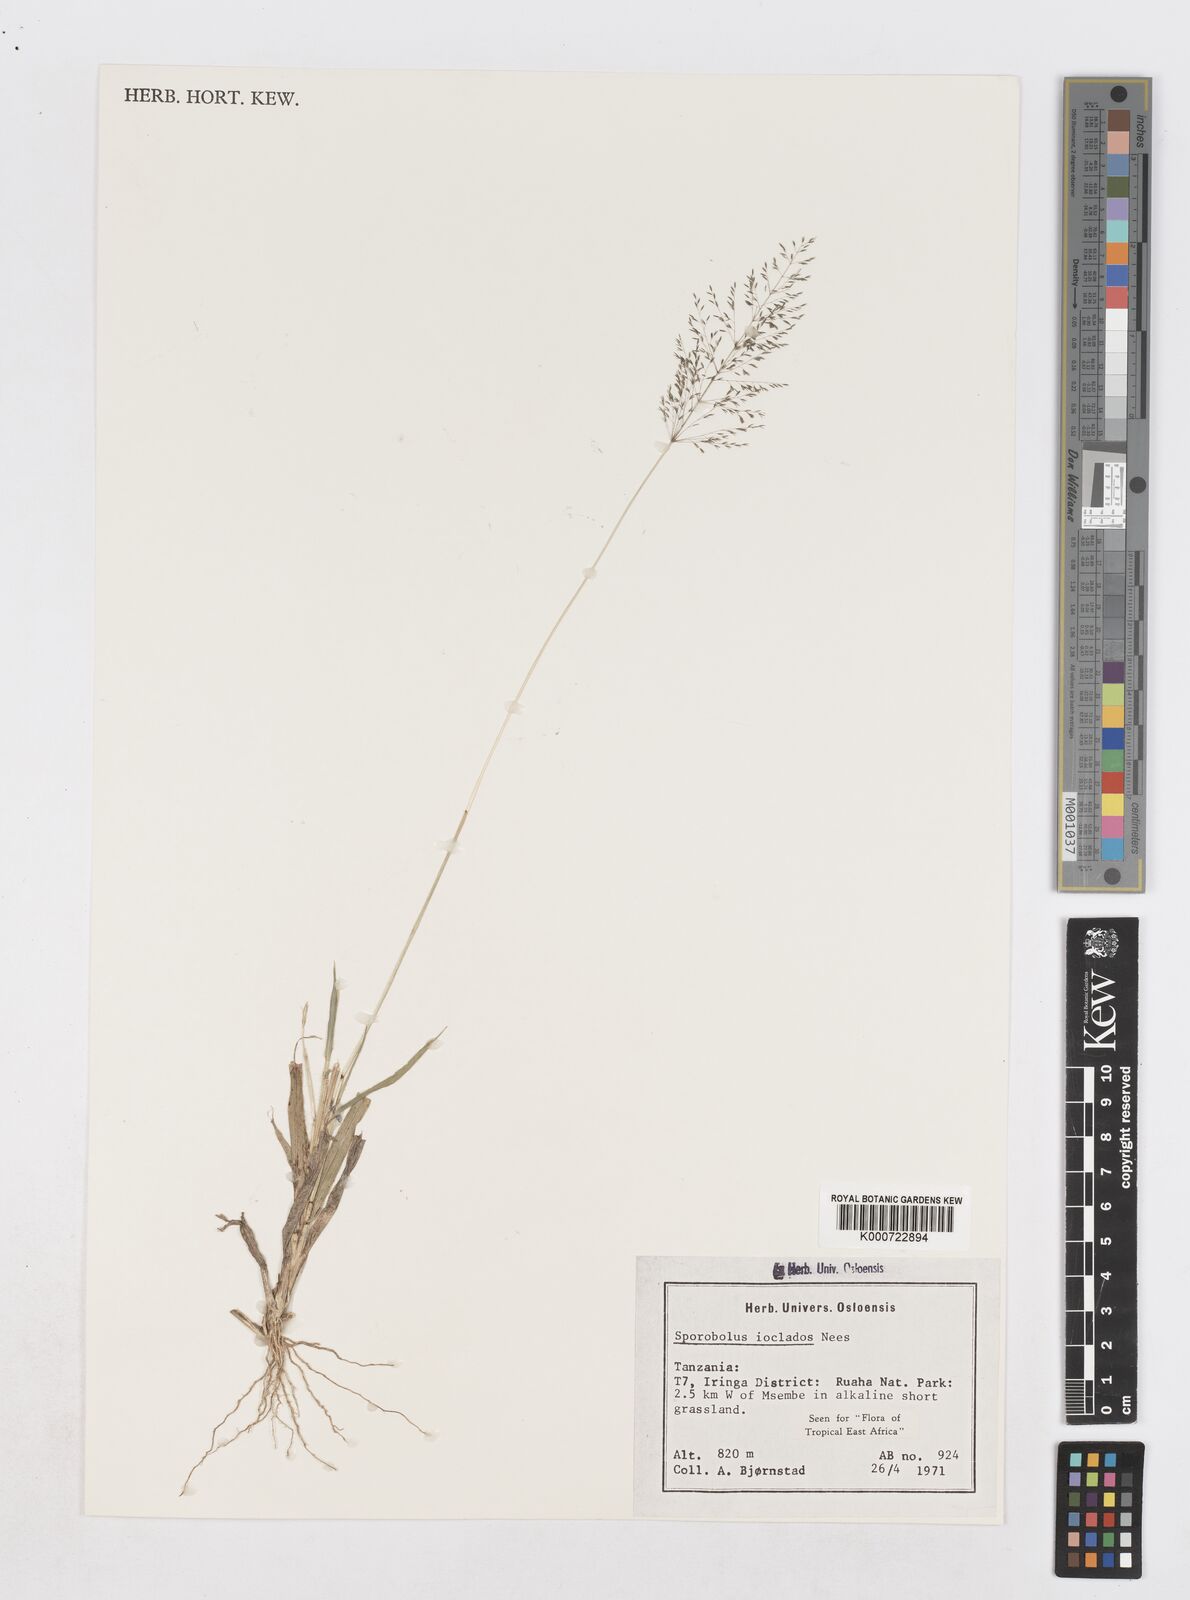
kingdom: Plantae
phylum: Tracheophyta
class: Liliopsida
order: Poales
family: Poaceae
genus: Sporobolus
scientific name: Sporobolus ioclados
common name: Pan dropseed
